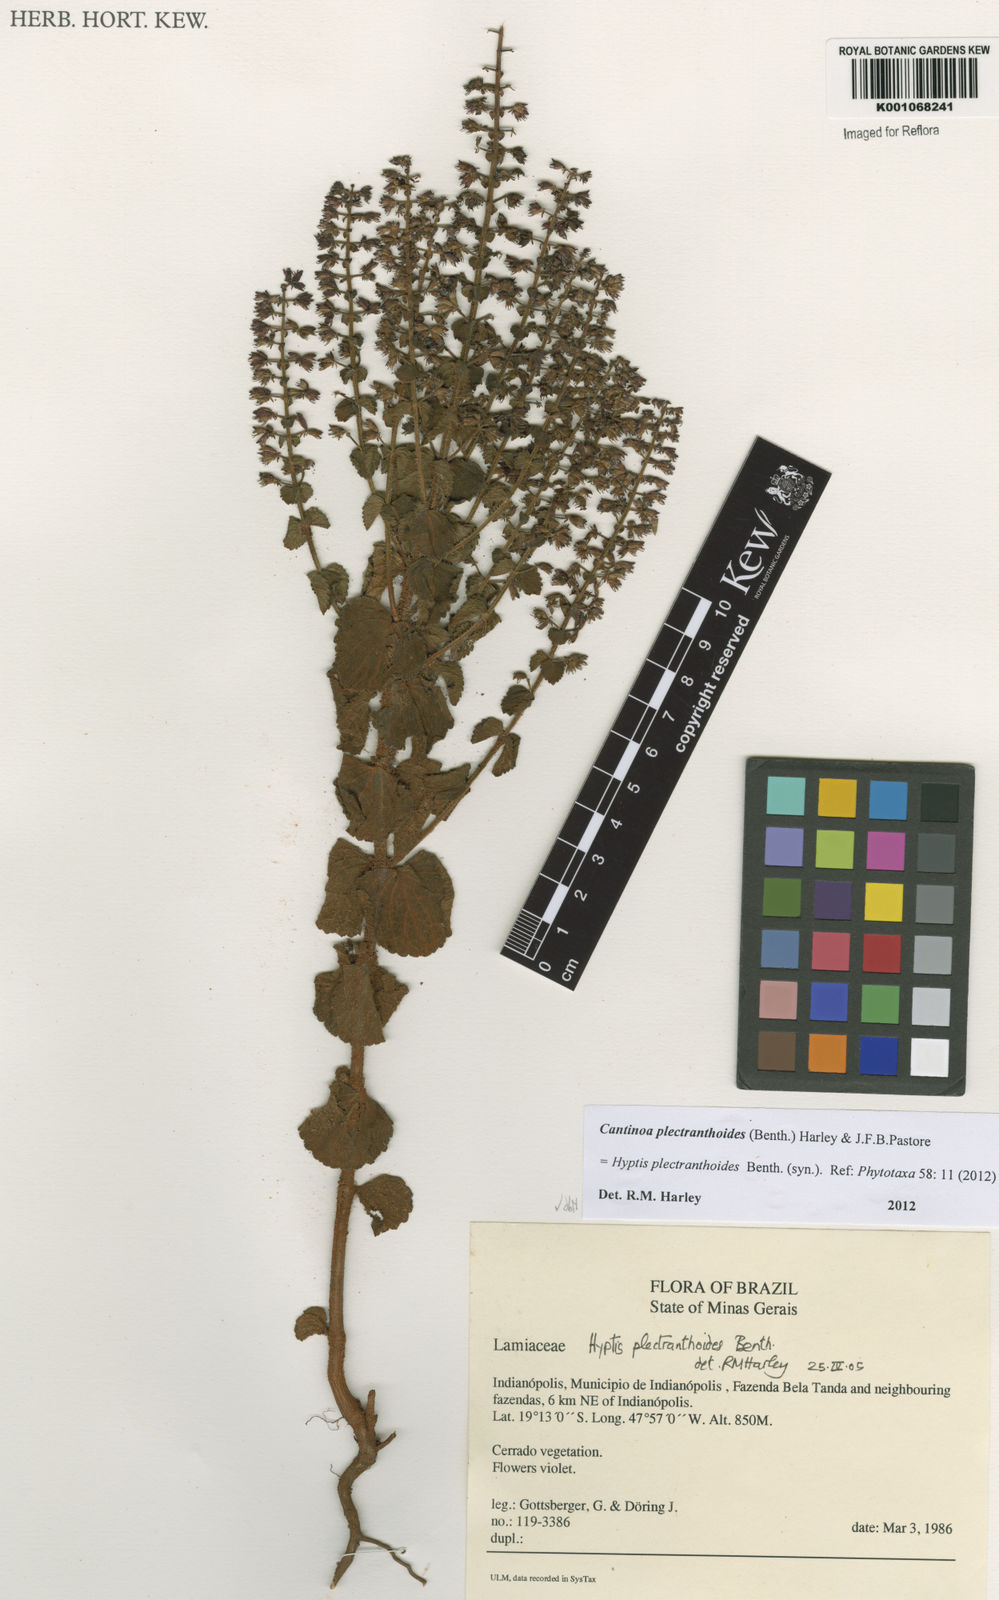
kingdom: Plantae
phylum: Tracheophyta
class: Magnoliopsida
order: Lamiales
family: Lamiaceae
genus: Cantinoa
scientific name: Cantinoa plectranthoides
